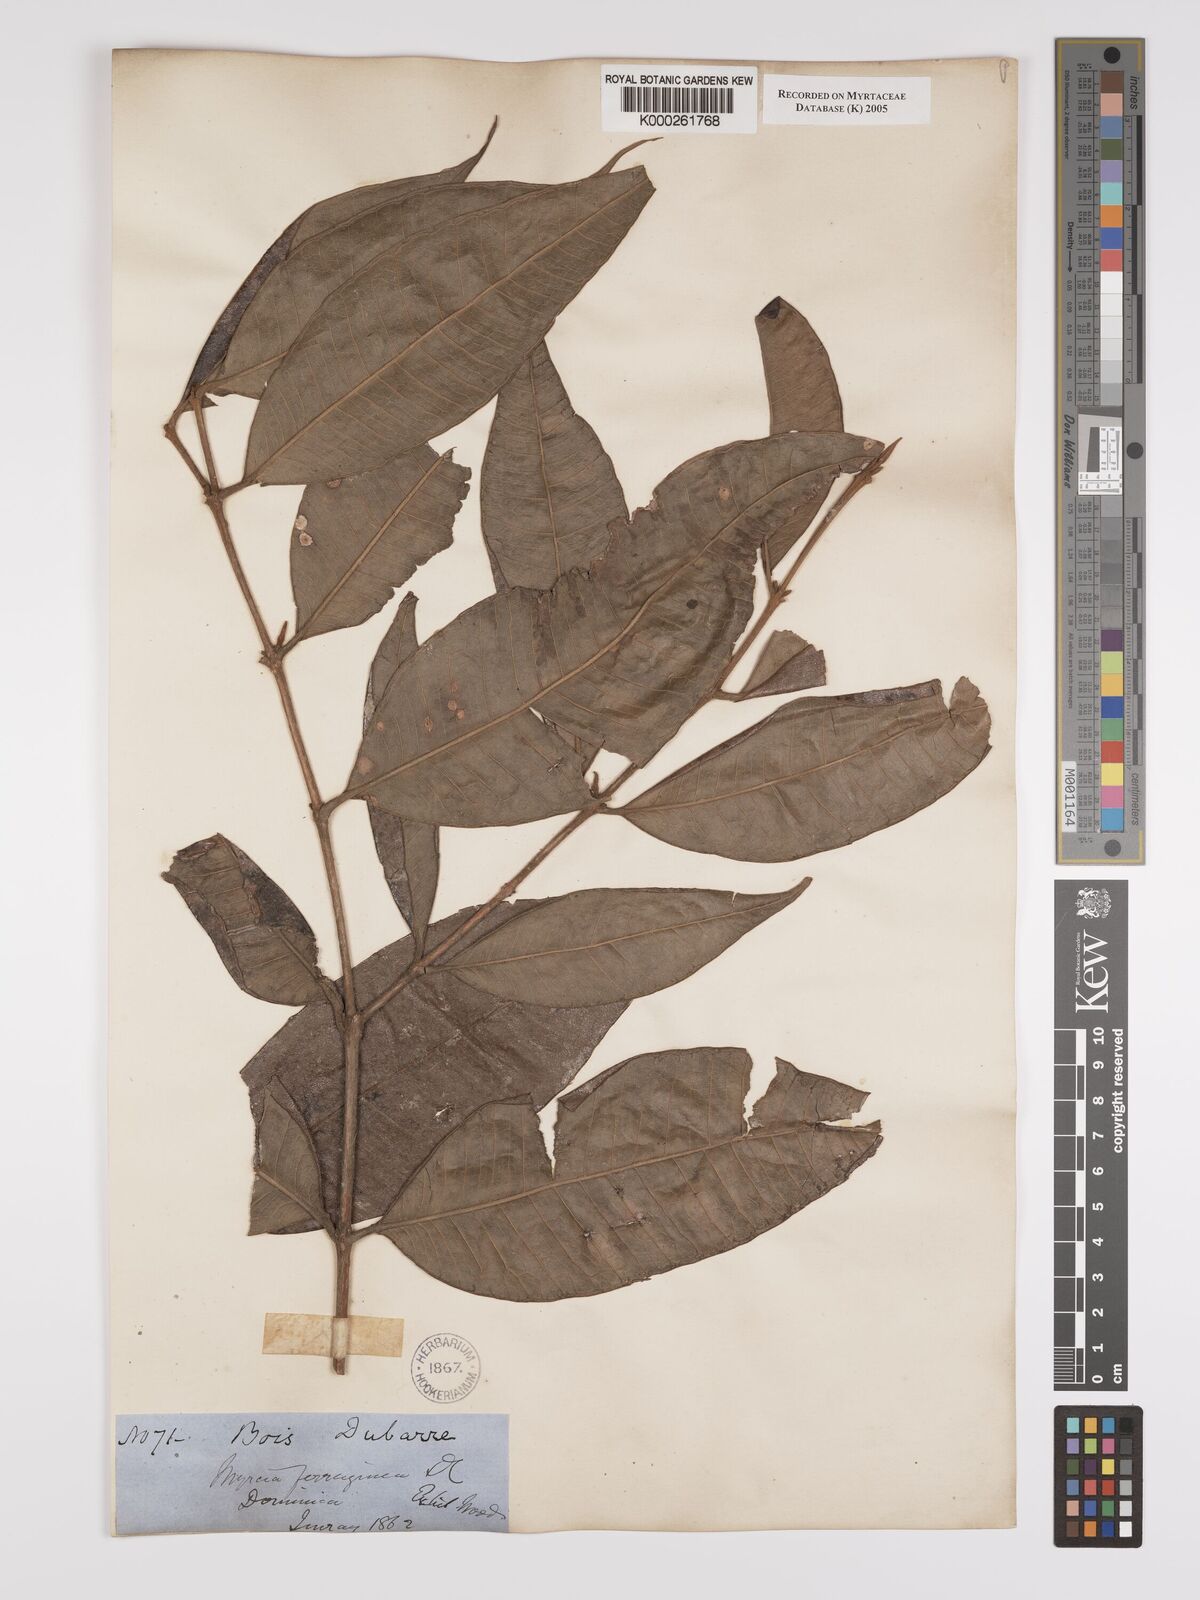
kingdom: Plantae
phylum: Tracheophyta
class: Magnoliopsida
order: Myrtales
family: Myrtaceae
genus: Myrcia
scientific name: Myrcia ferruginea
